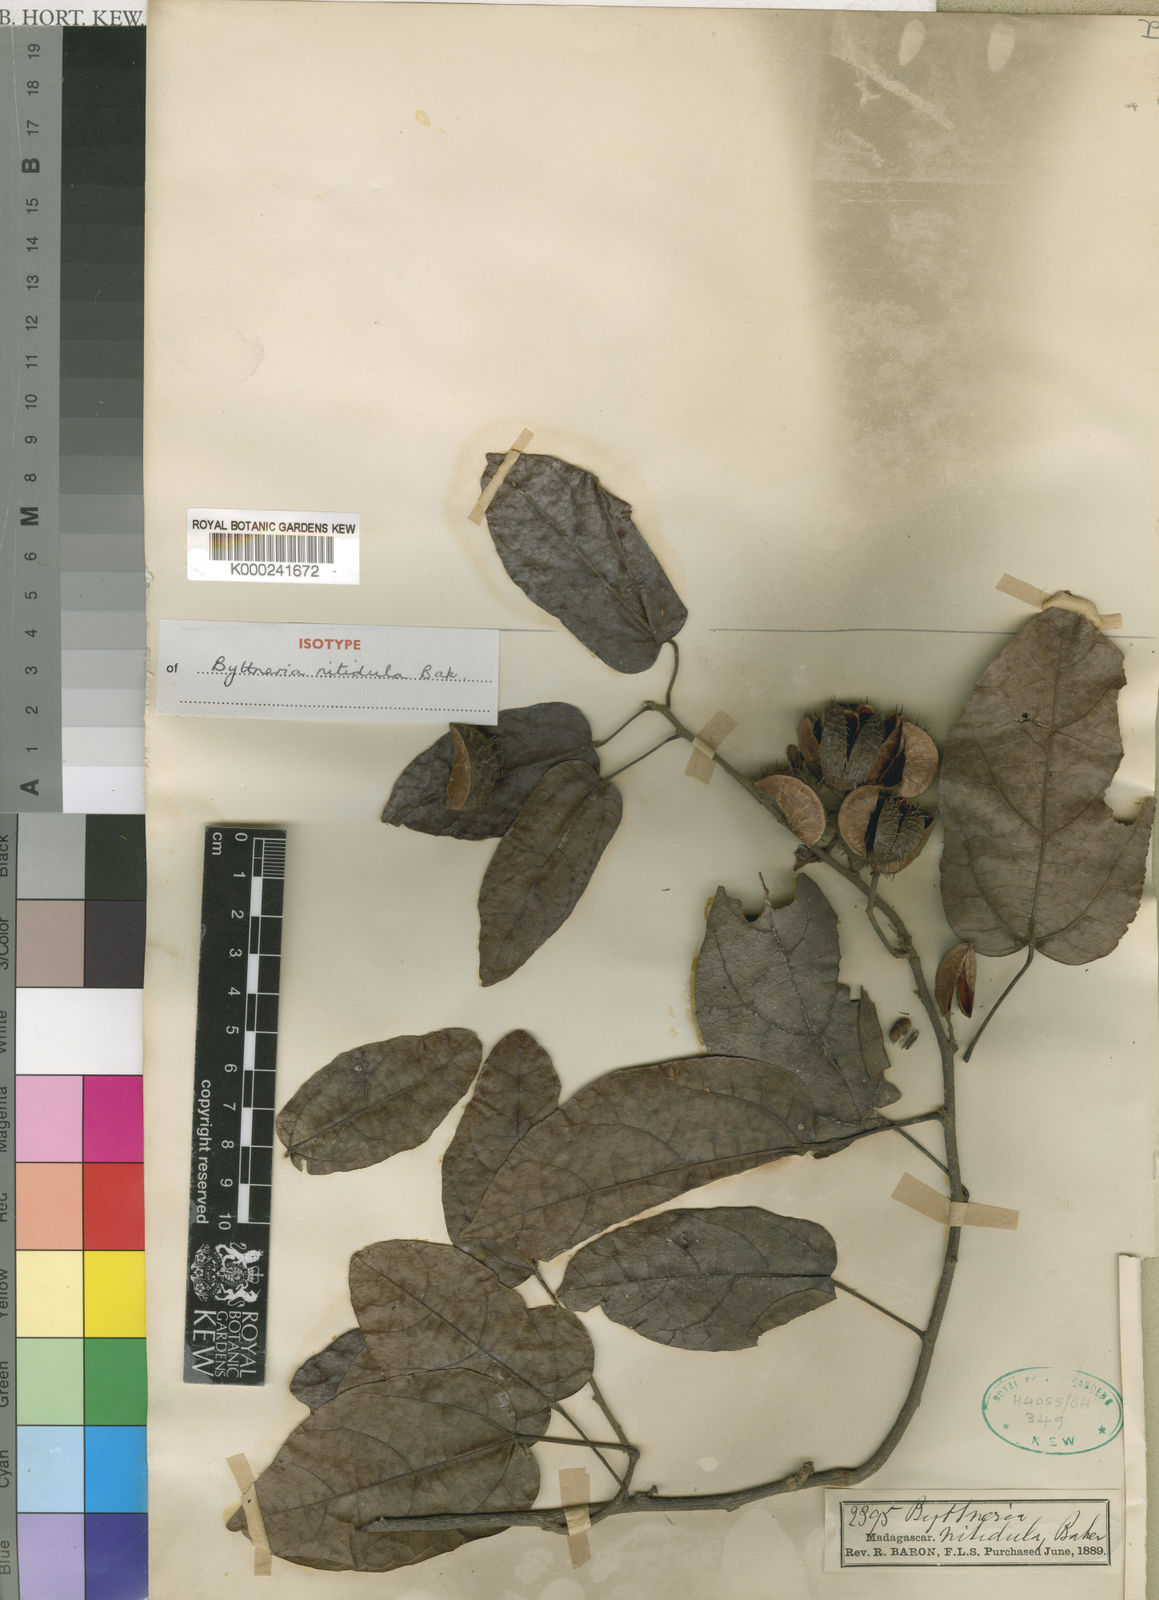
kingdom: Plantae
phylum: Tracheophyta
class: Magnoliopsida
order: Malvales
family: Malvaceae
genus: Byttneria
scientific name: Byttneria nitidula
